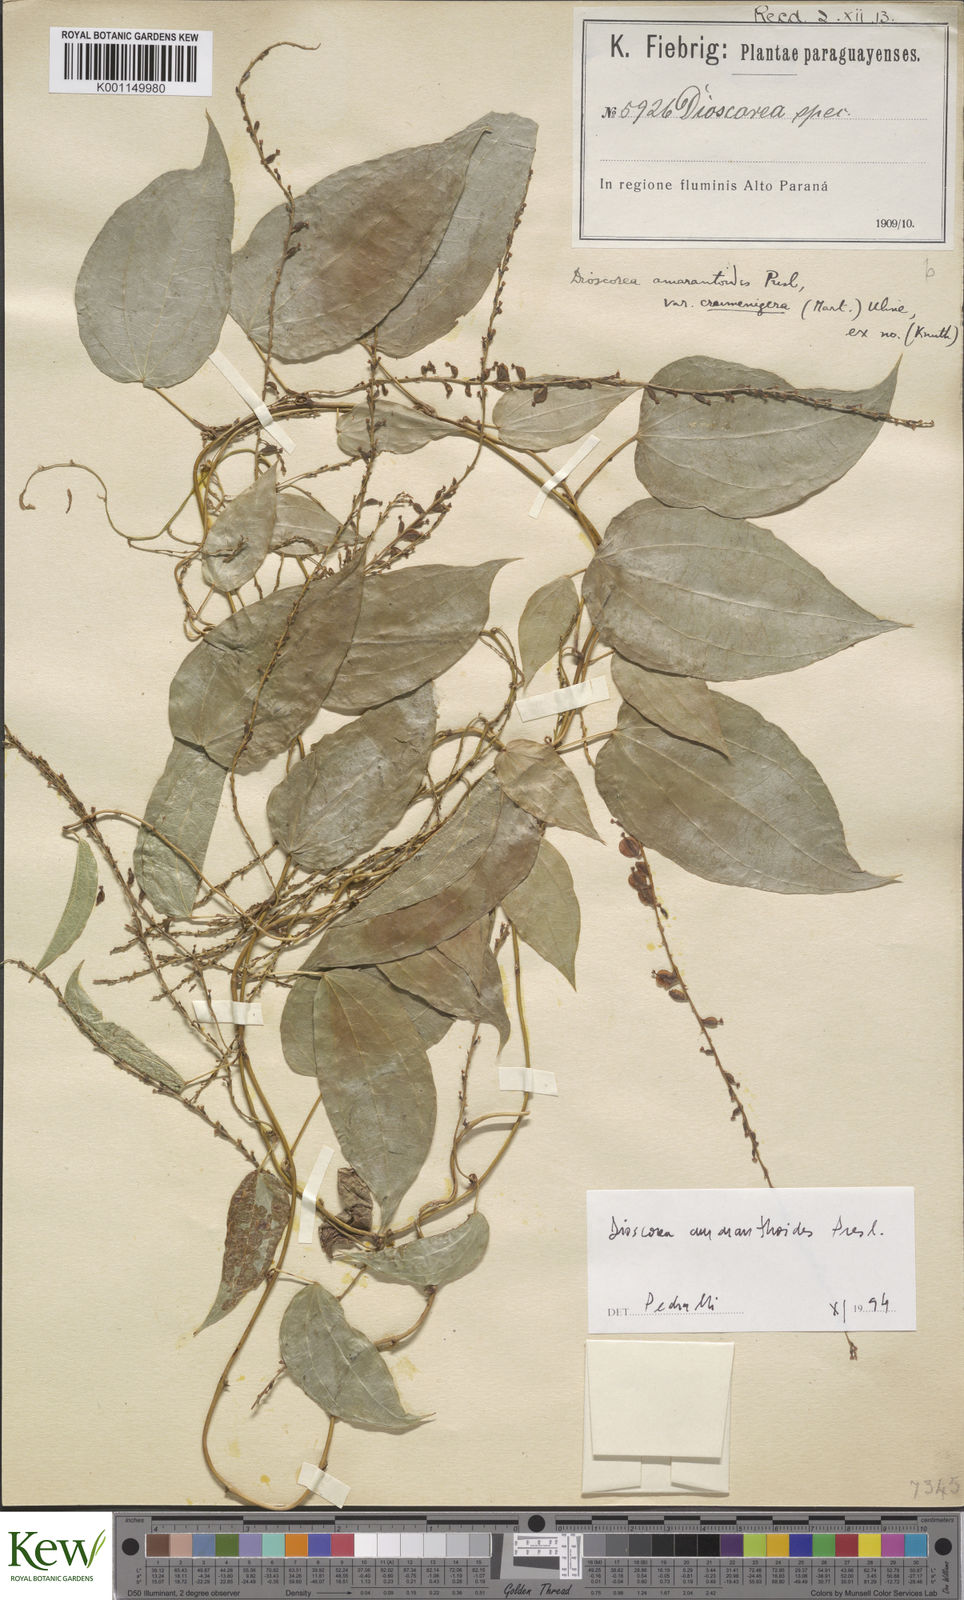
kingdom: Plantae
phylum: Tracheophyta
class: Liliopsida
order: Dioscoreales
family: Dioscoreaceae
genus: Dioscorea
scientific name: Dioscorea
